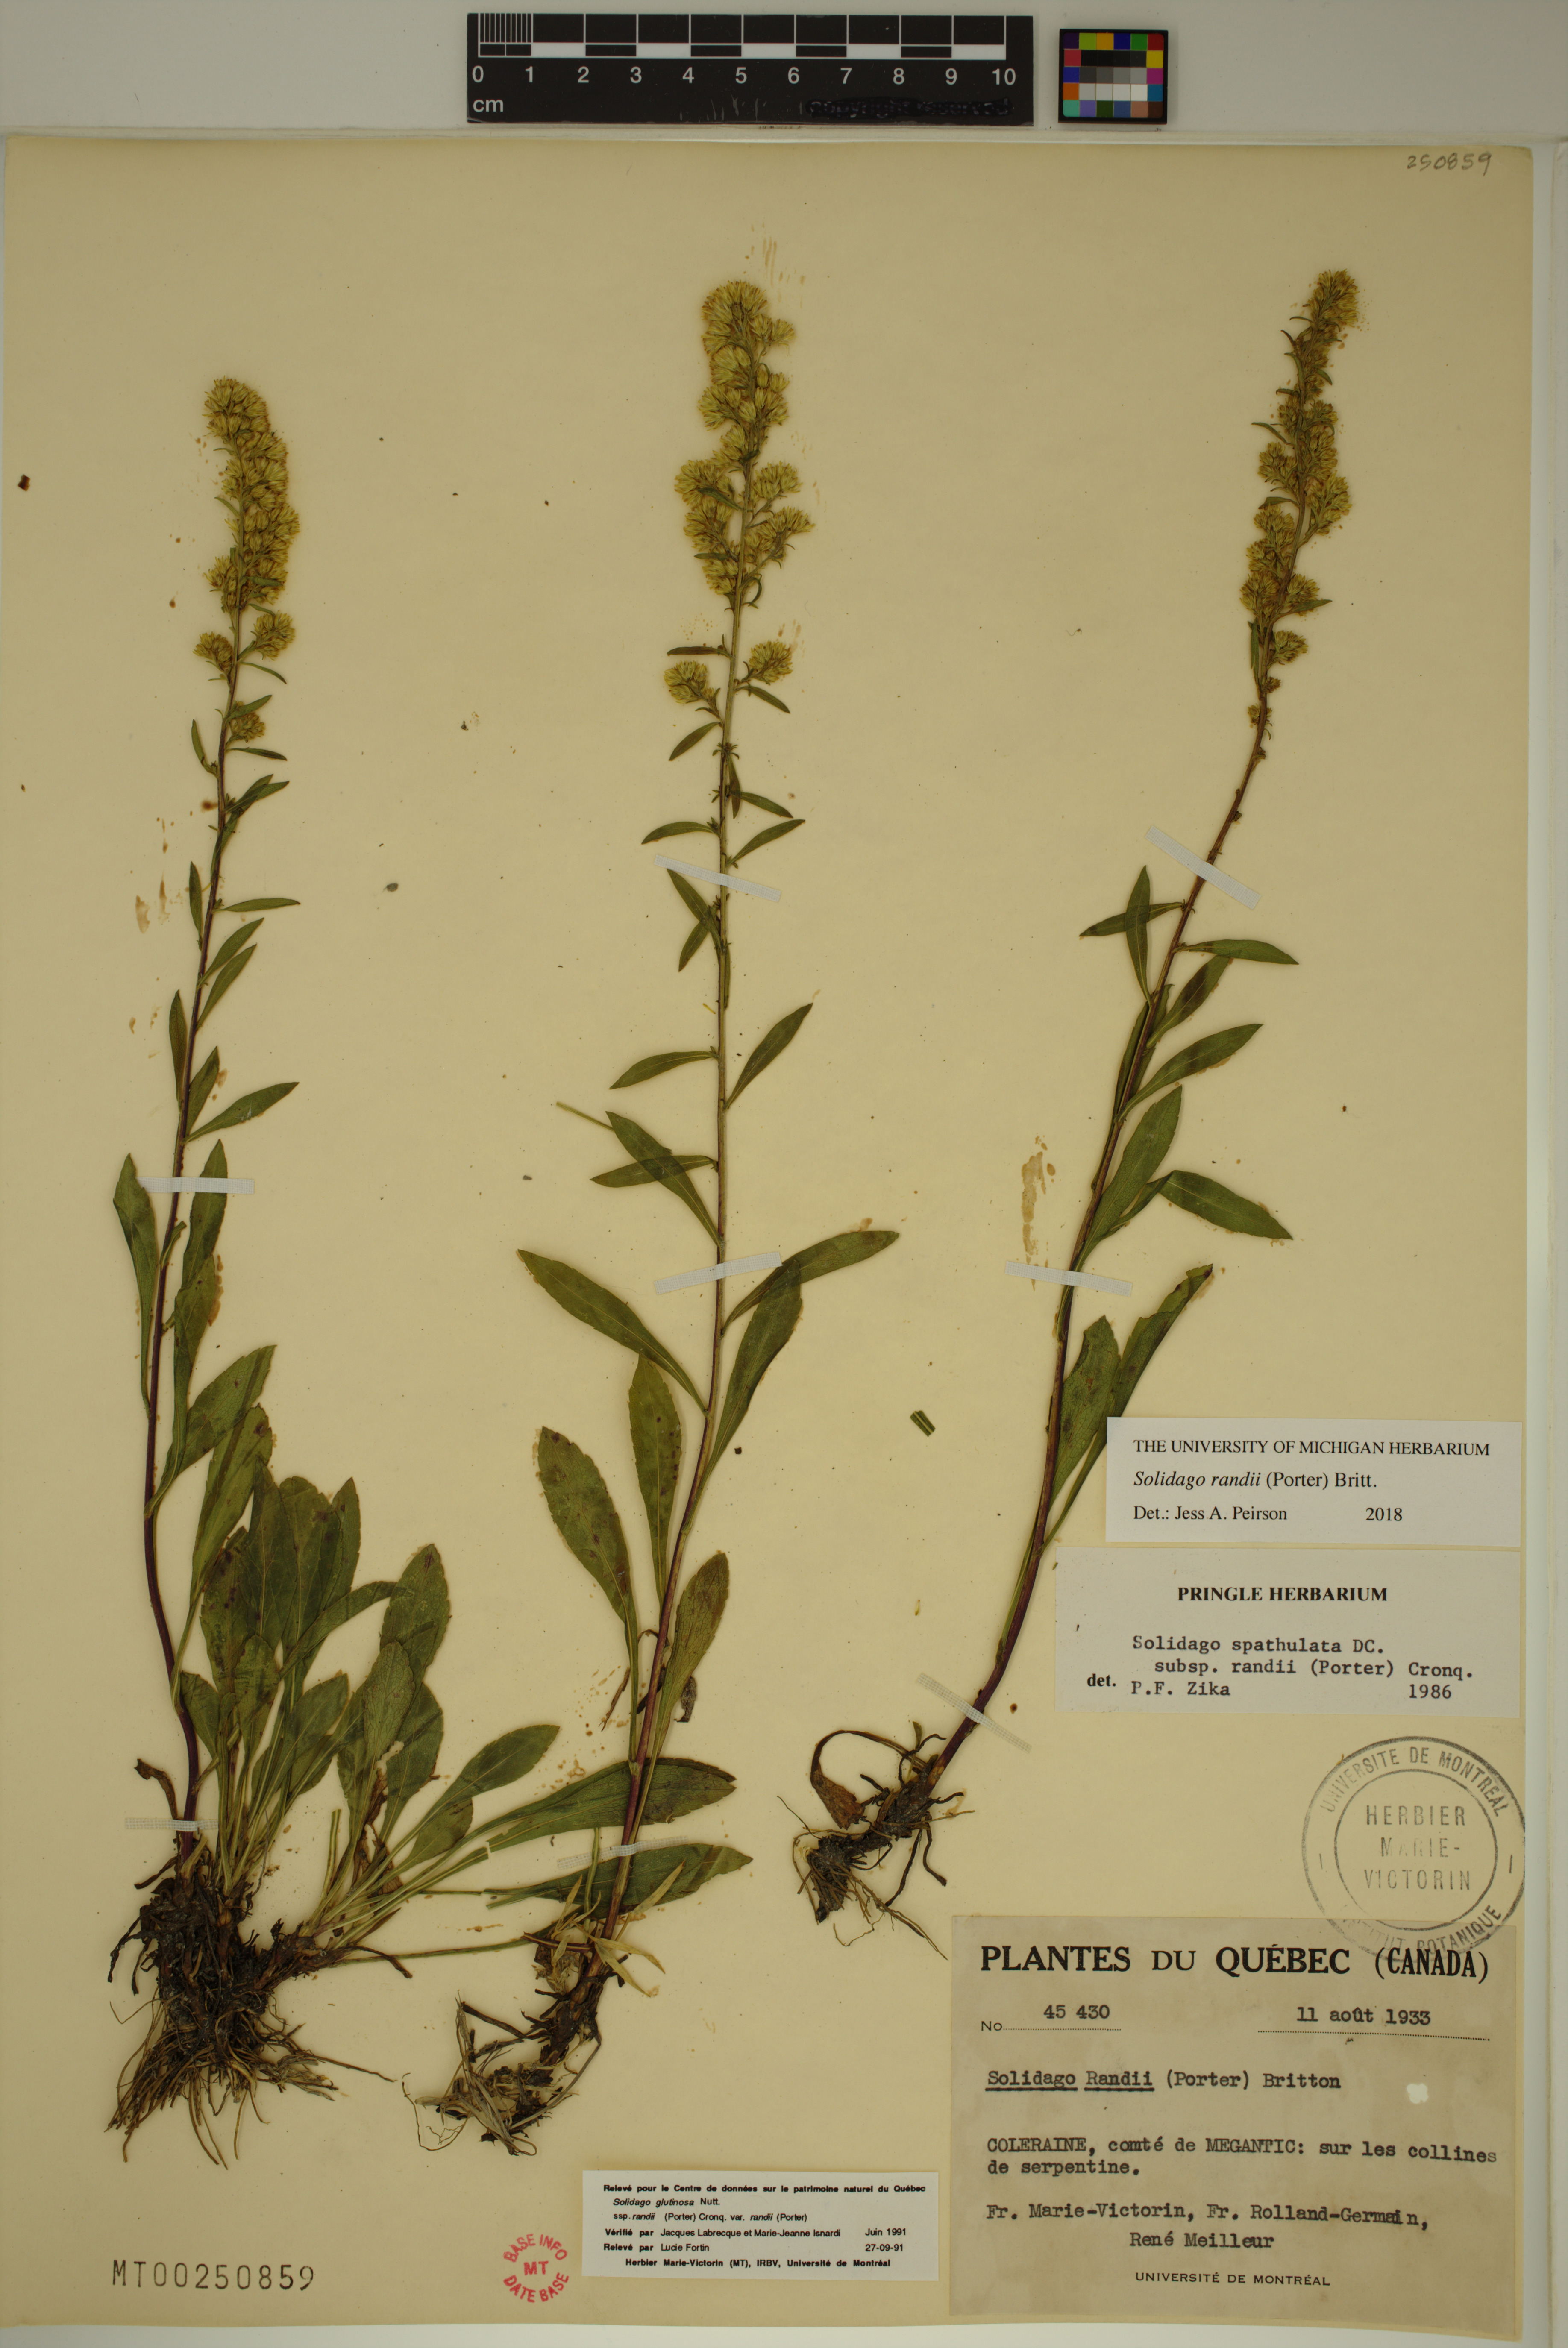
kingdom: Plantae
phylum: Tracheophyta
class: Magnoliopsida
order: Asterales
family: Asteraceae
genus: Solidago
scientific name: Solidago randii
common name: Rand's goldenrod
